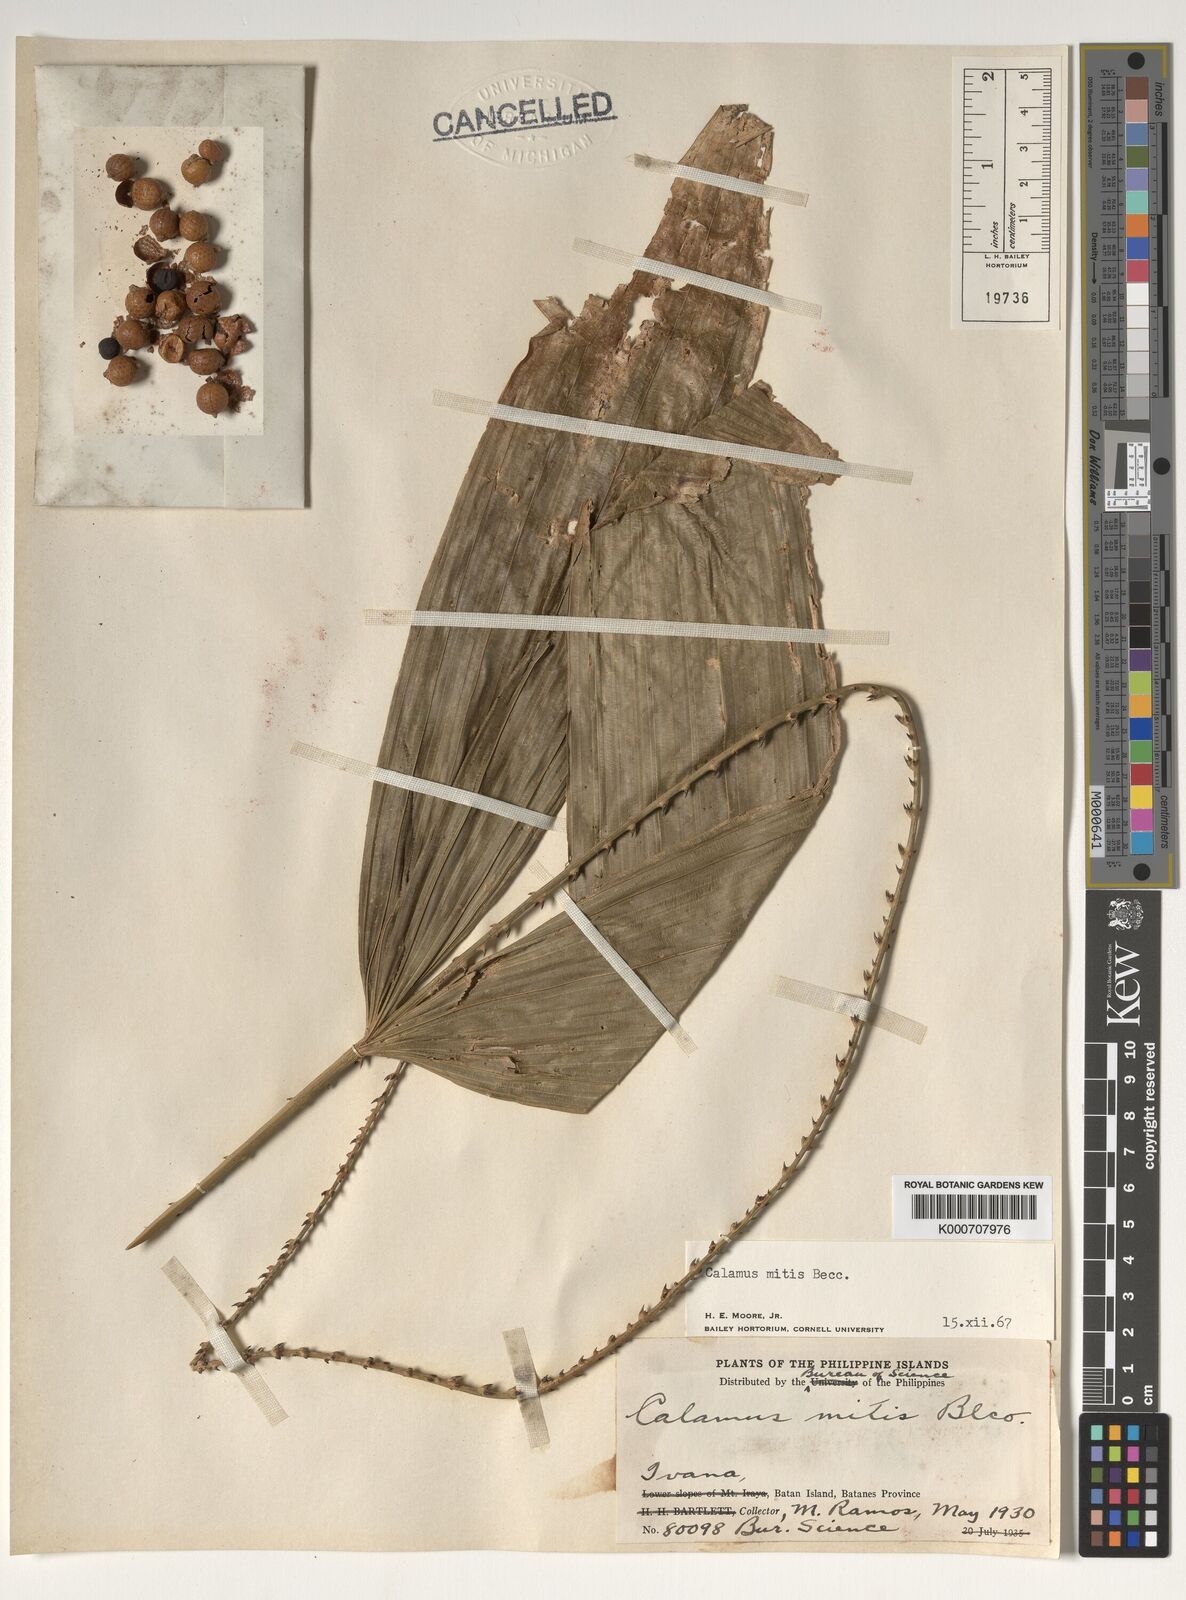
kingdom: Plantae
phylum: Tracheophyta
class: Liliopsida
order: Arecales
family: Arecaceae
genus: Calamus
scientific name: Calamus mitis
